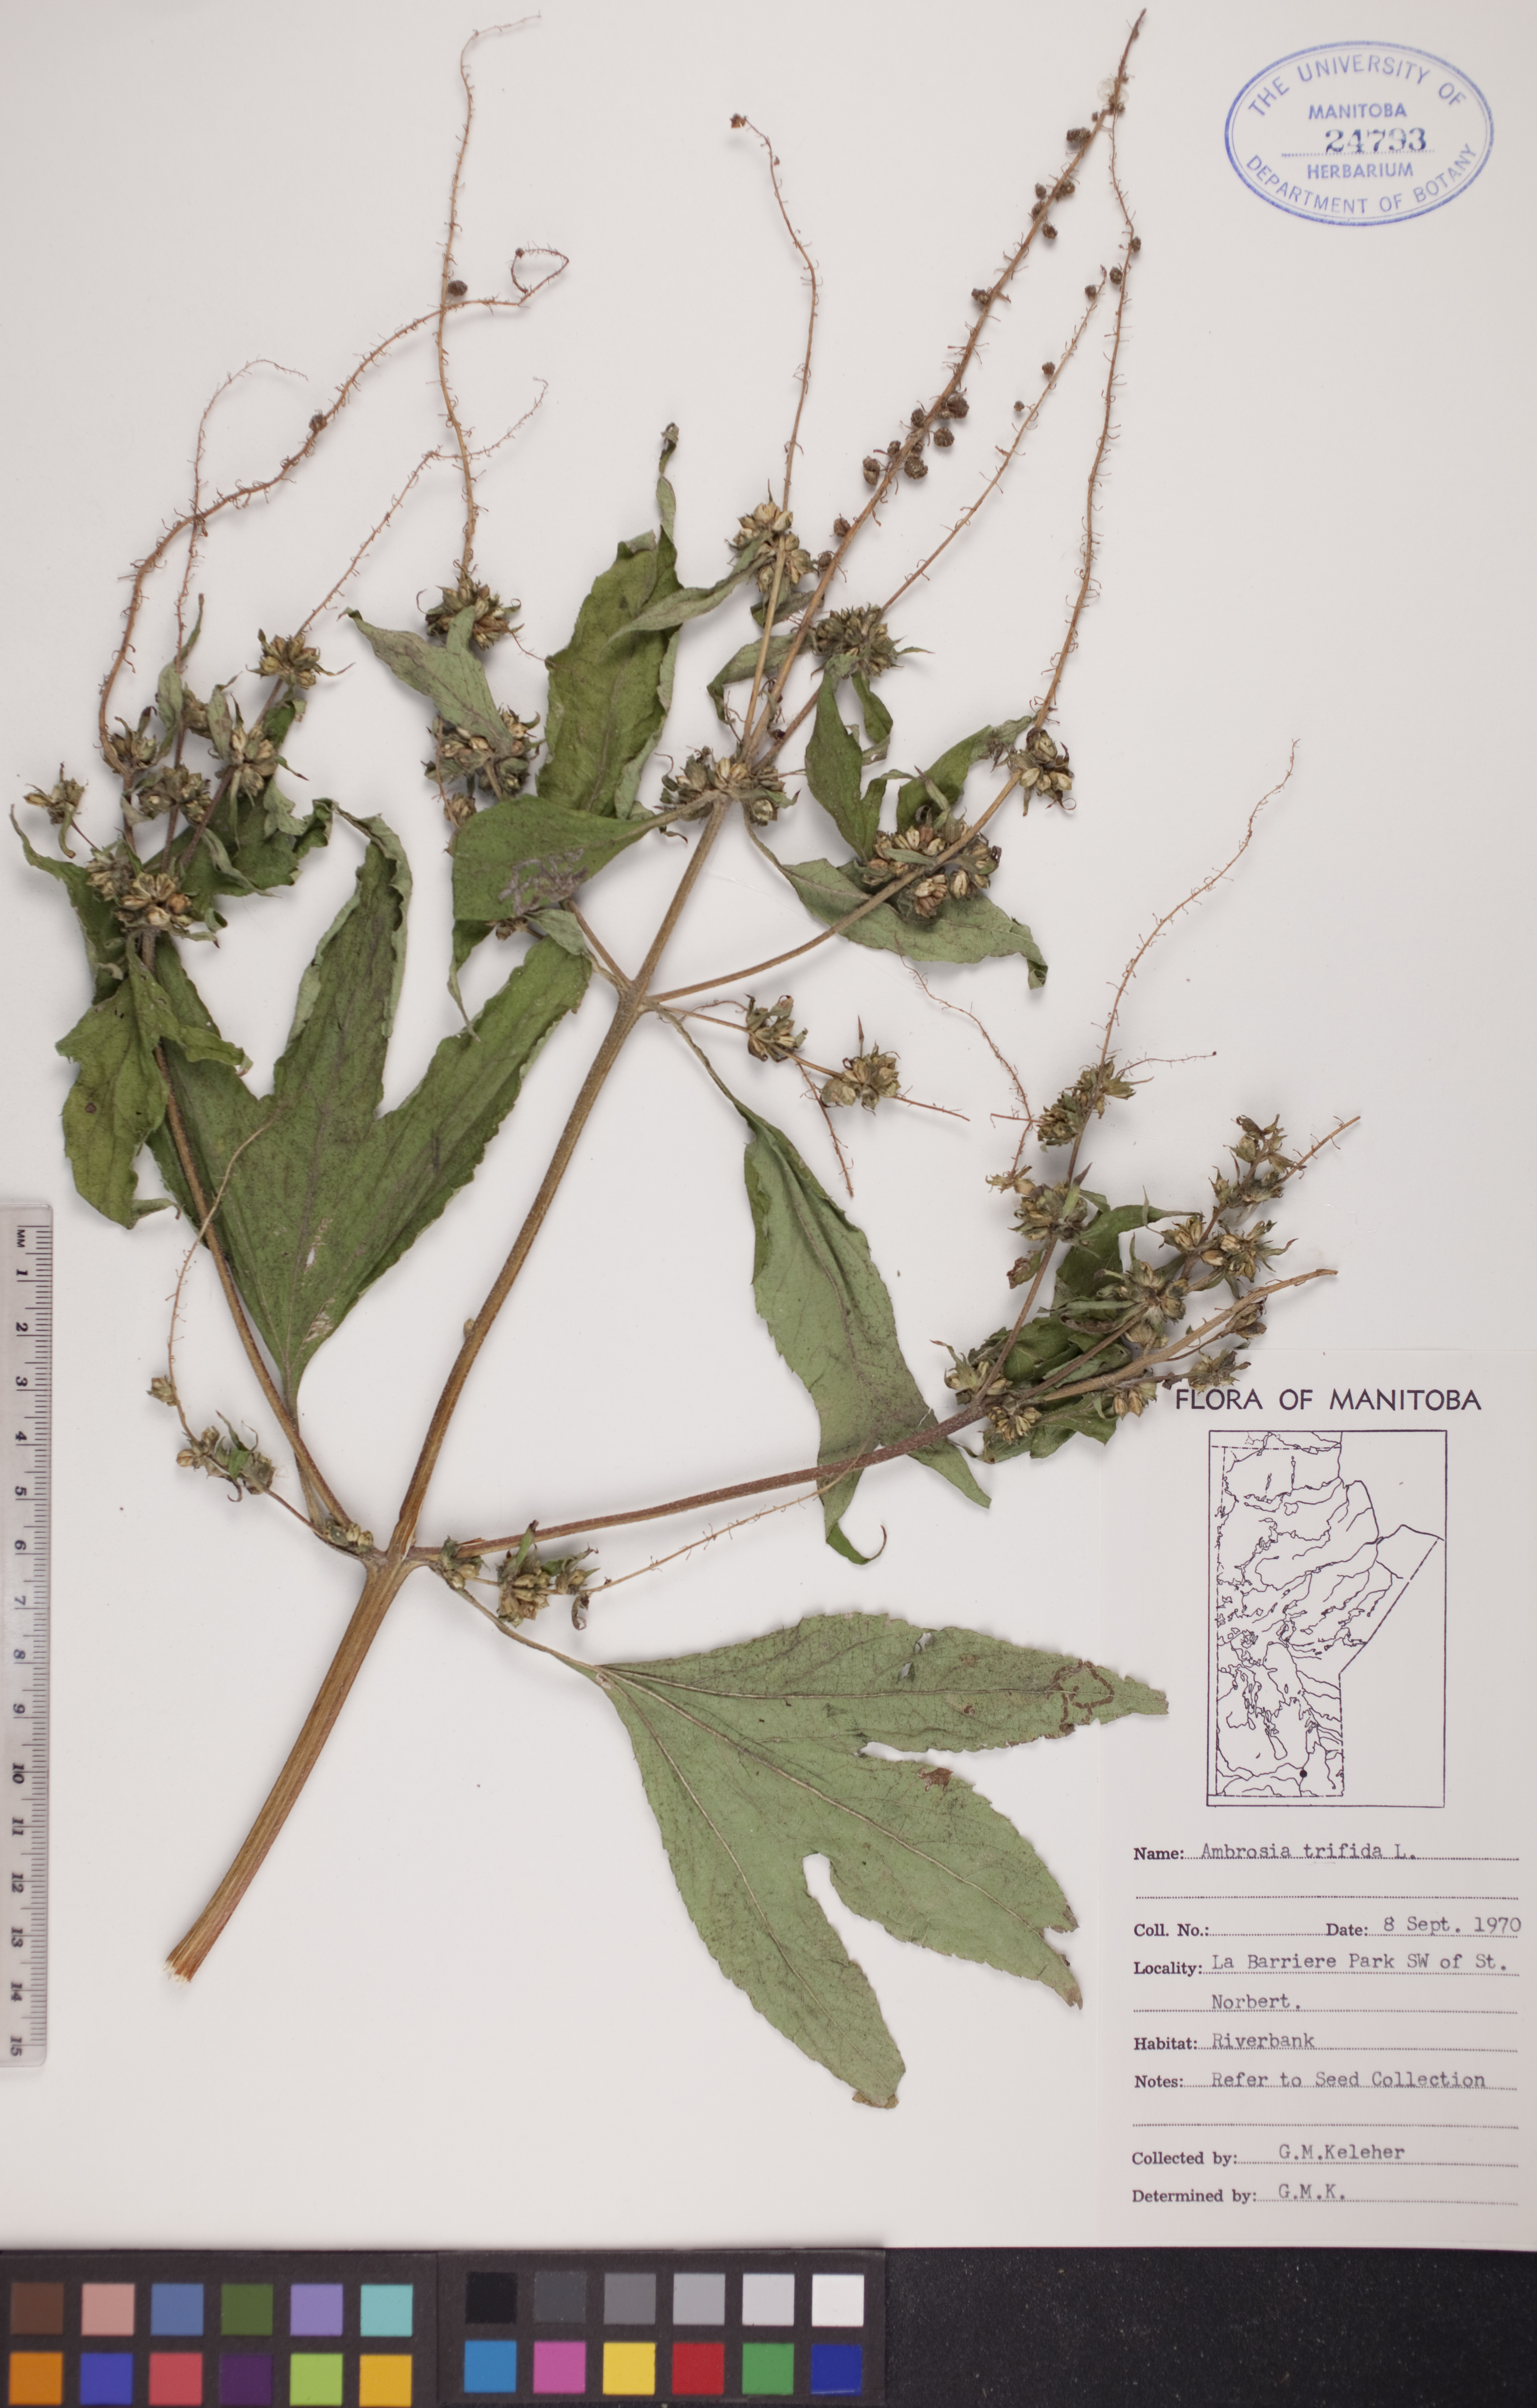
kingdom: Plantae
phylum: Tracheophyta
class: Magnoliopsida
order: Asterales
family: Asteraceae
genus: Ambrosia
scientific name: Ambrosia trifida
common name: Giant ragweed
